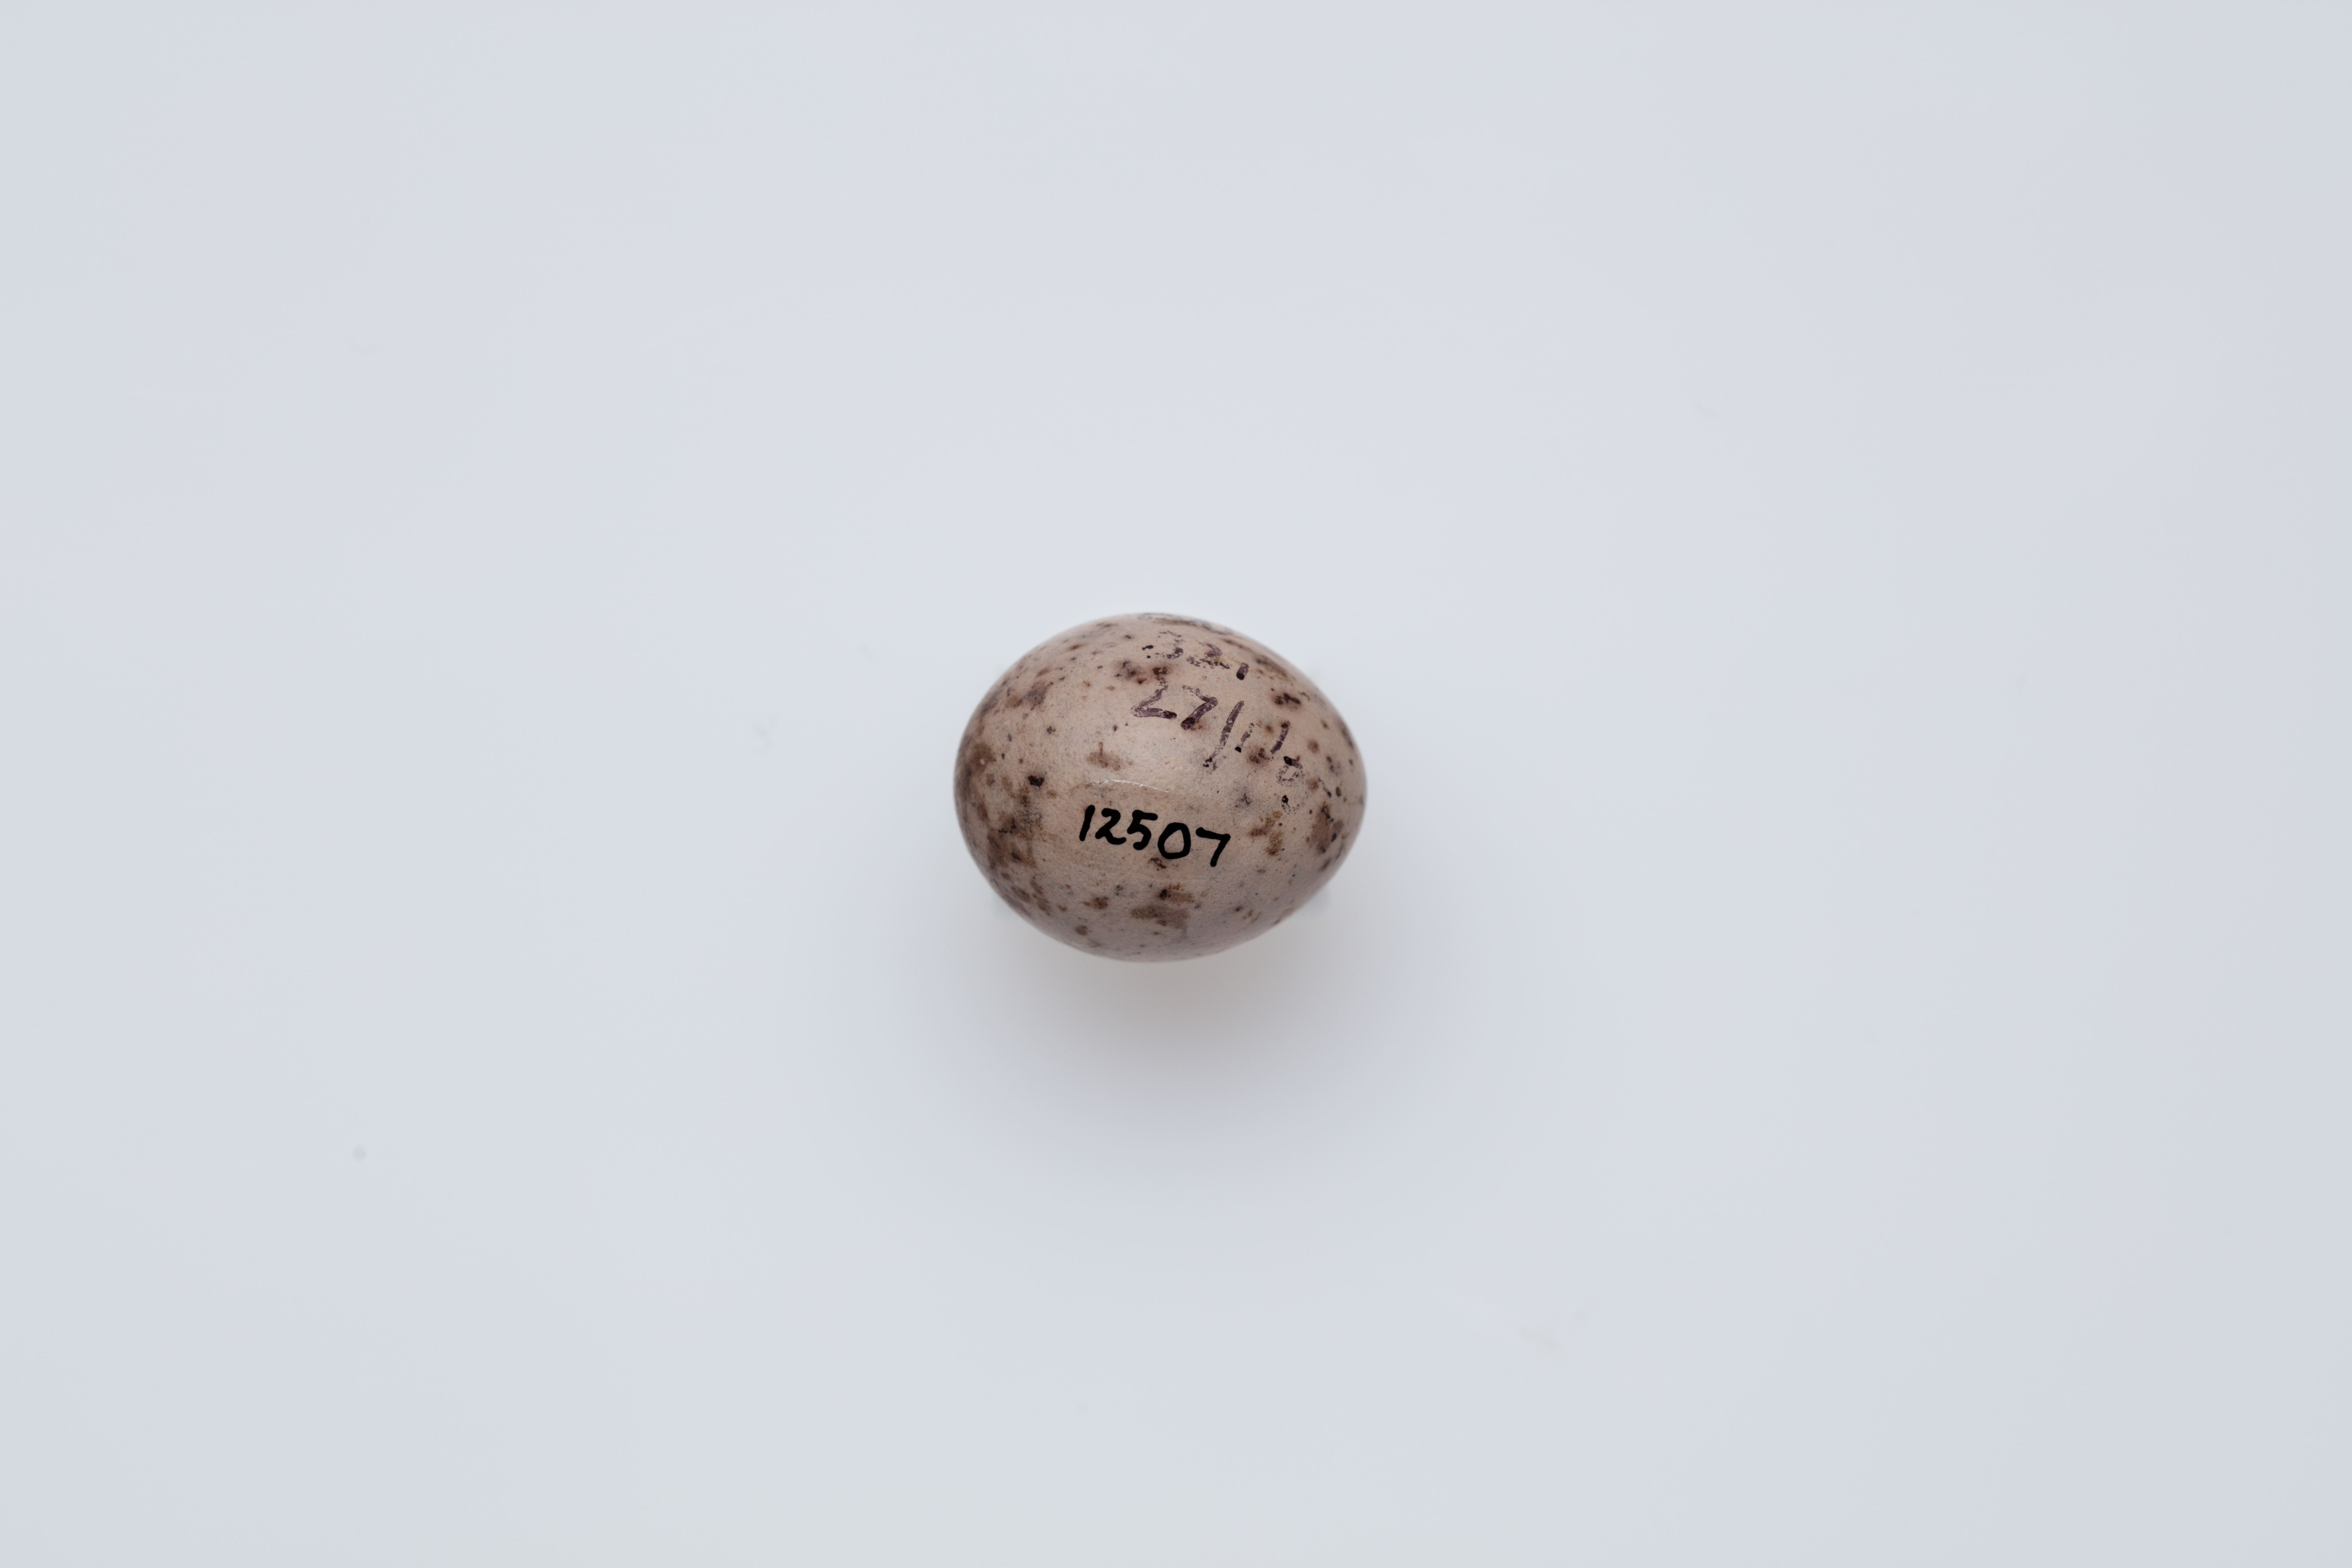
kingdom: Animalia
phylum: Chordata
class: Aves
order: Passeriformes
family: Callaeatidae
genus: Philesturnus
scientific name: Philesturnus carunculatus
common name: South island saddleback
